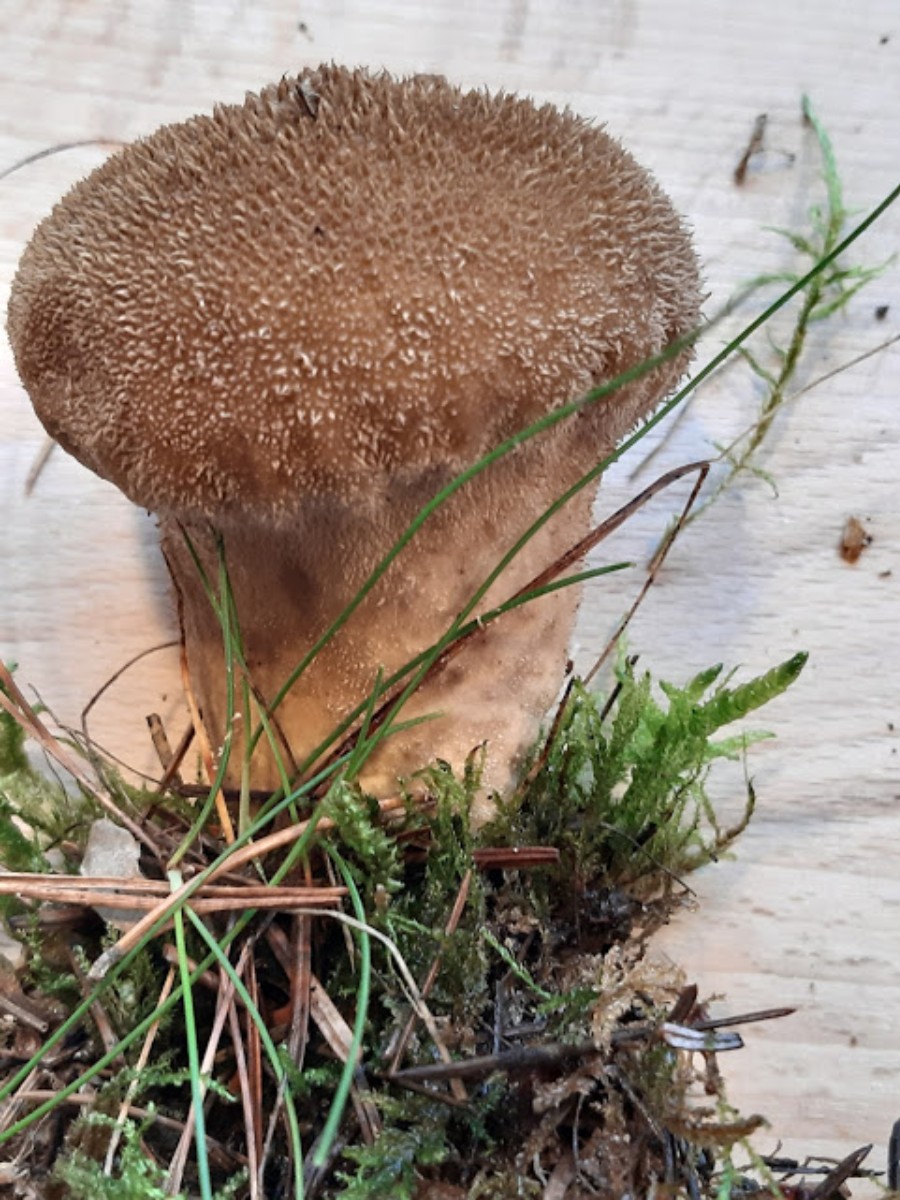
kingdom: Fungi
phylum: Basidiomycota
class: Agaricomycetes
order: Agaricales
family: Lycoperdaceae
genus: Lycoperdon
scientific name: Lycoperdon nigrescens
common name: sortagtig støvbold
